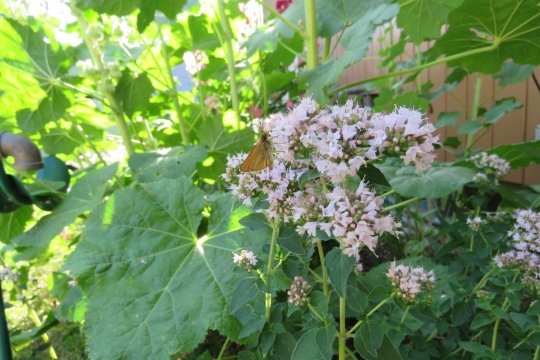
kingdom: Animalia
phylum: Arthropoda
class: Insecta
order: Lepidoptera
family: Hesperiidae
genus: Thymelicus
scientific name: Thymelicus lineola
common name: European Skipper
